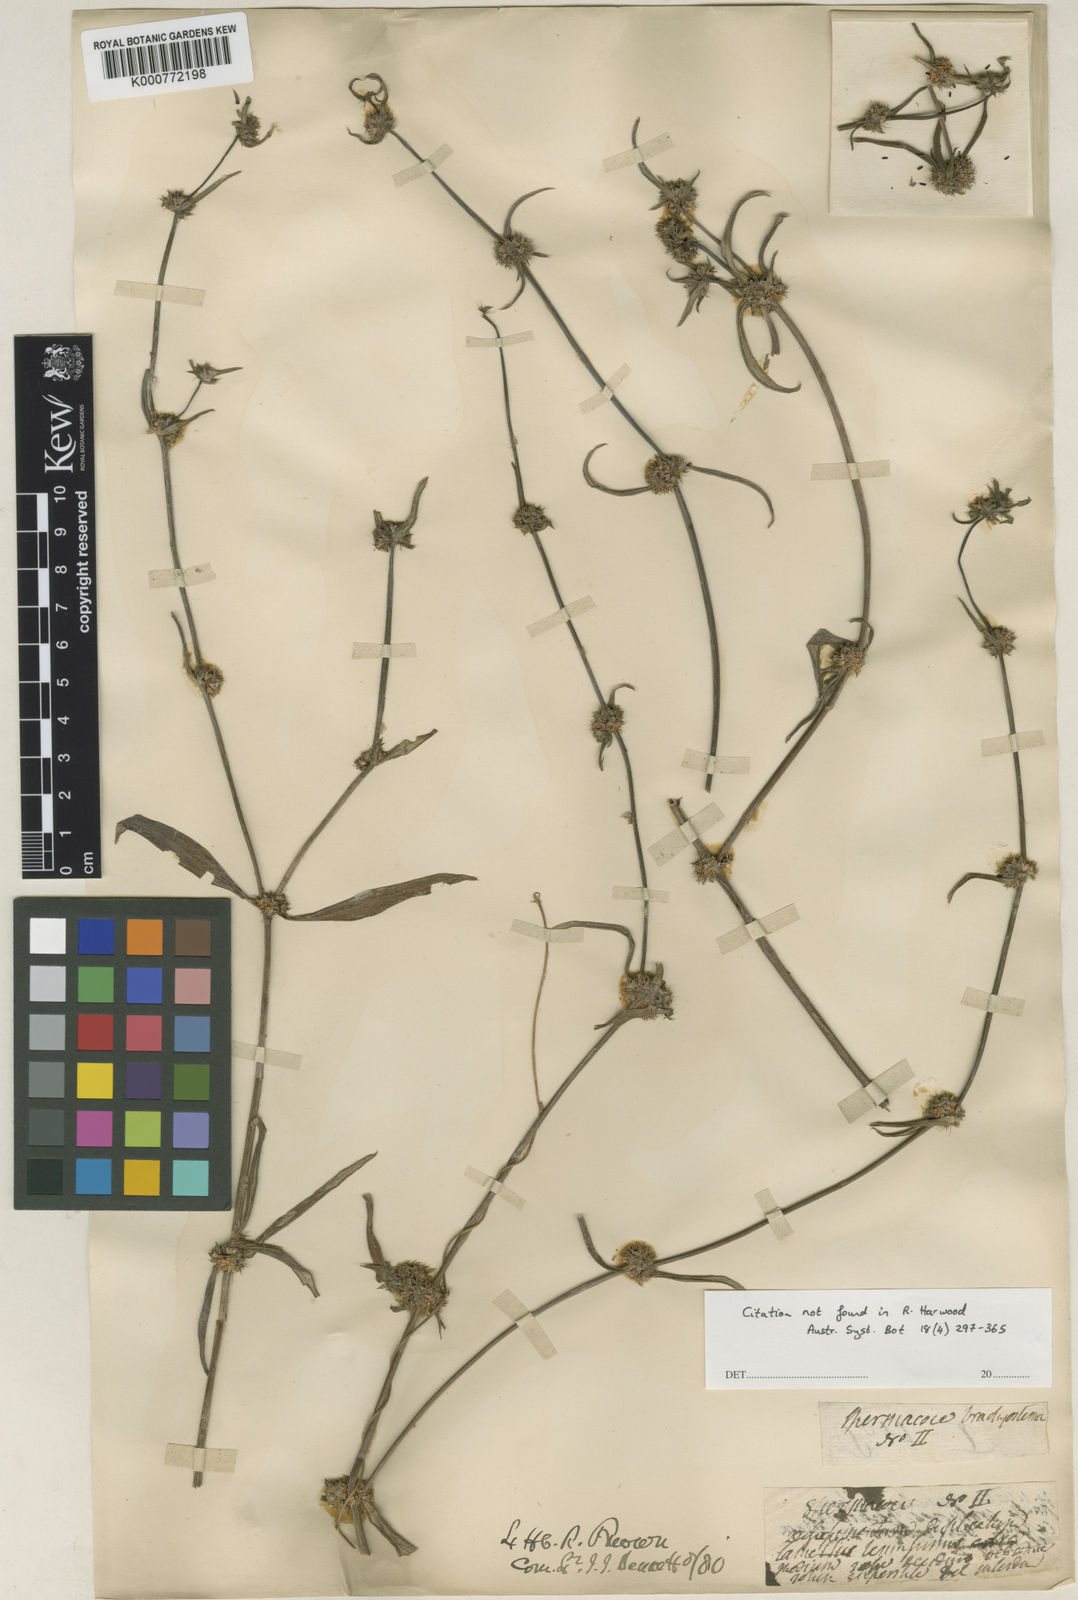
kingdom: Plantae
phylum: Tracheophyta
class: Magnoliopsida
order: Gentianales
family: Rubiaceae
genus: Spermacoce
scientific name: Spermacoce brachystema
